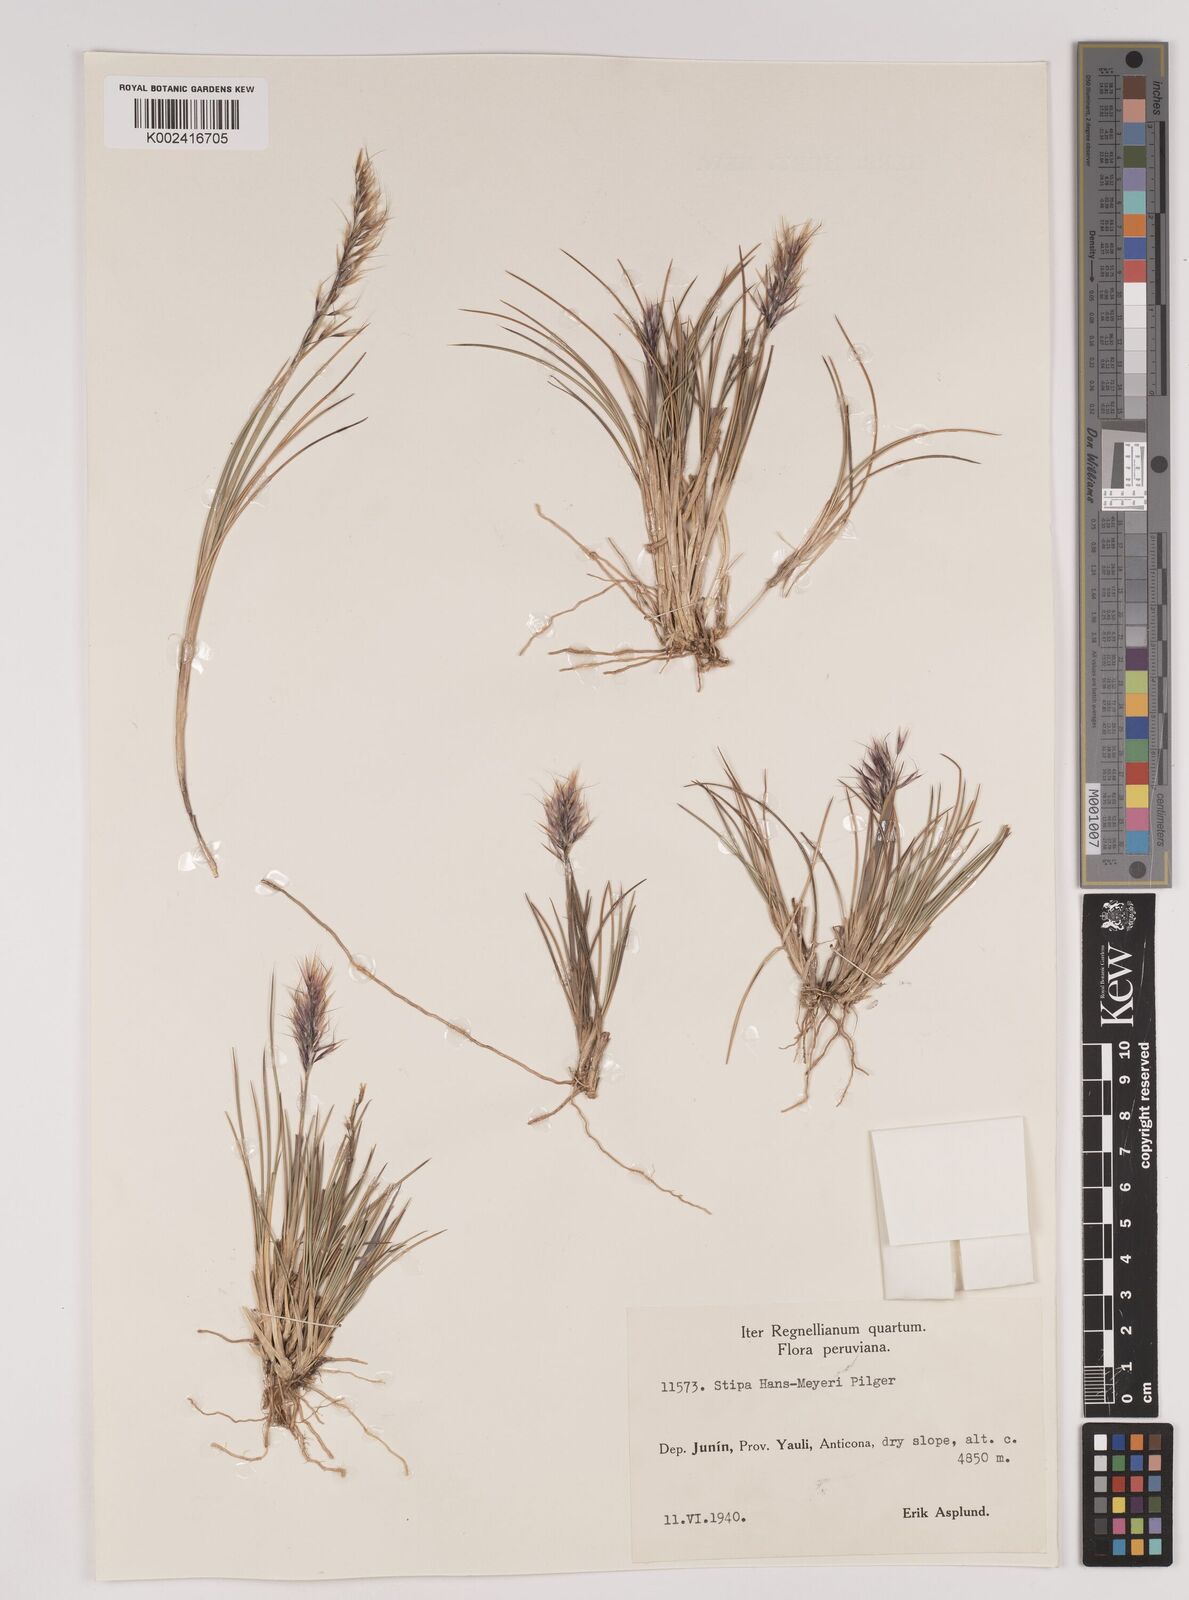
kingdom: Plantae
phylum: Tracheophyta
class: Liliopsida
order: Poales
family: Poaceae
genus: Stipa
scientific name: Stipa hans-meyeri
